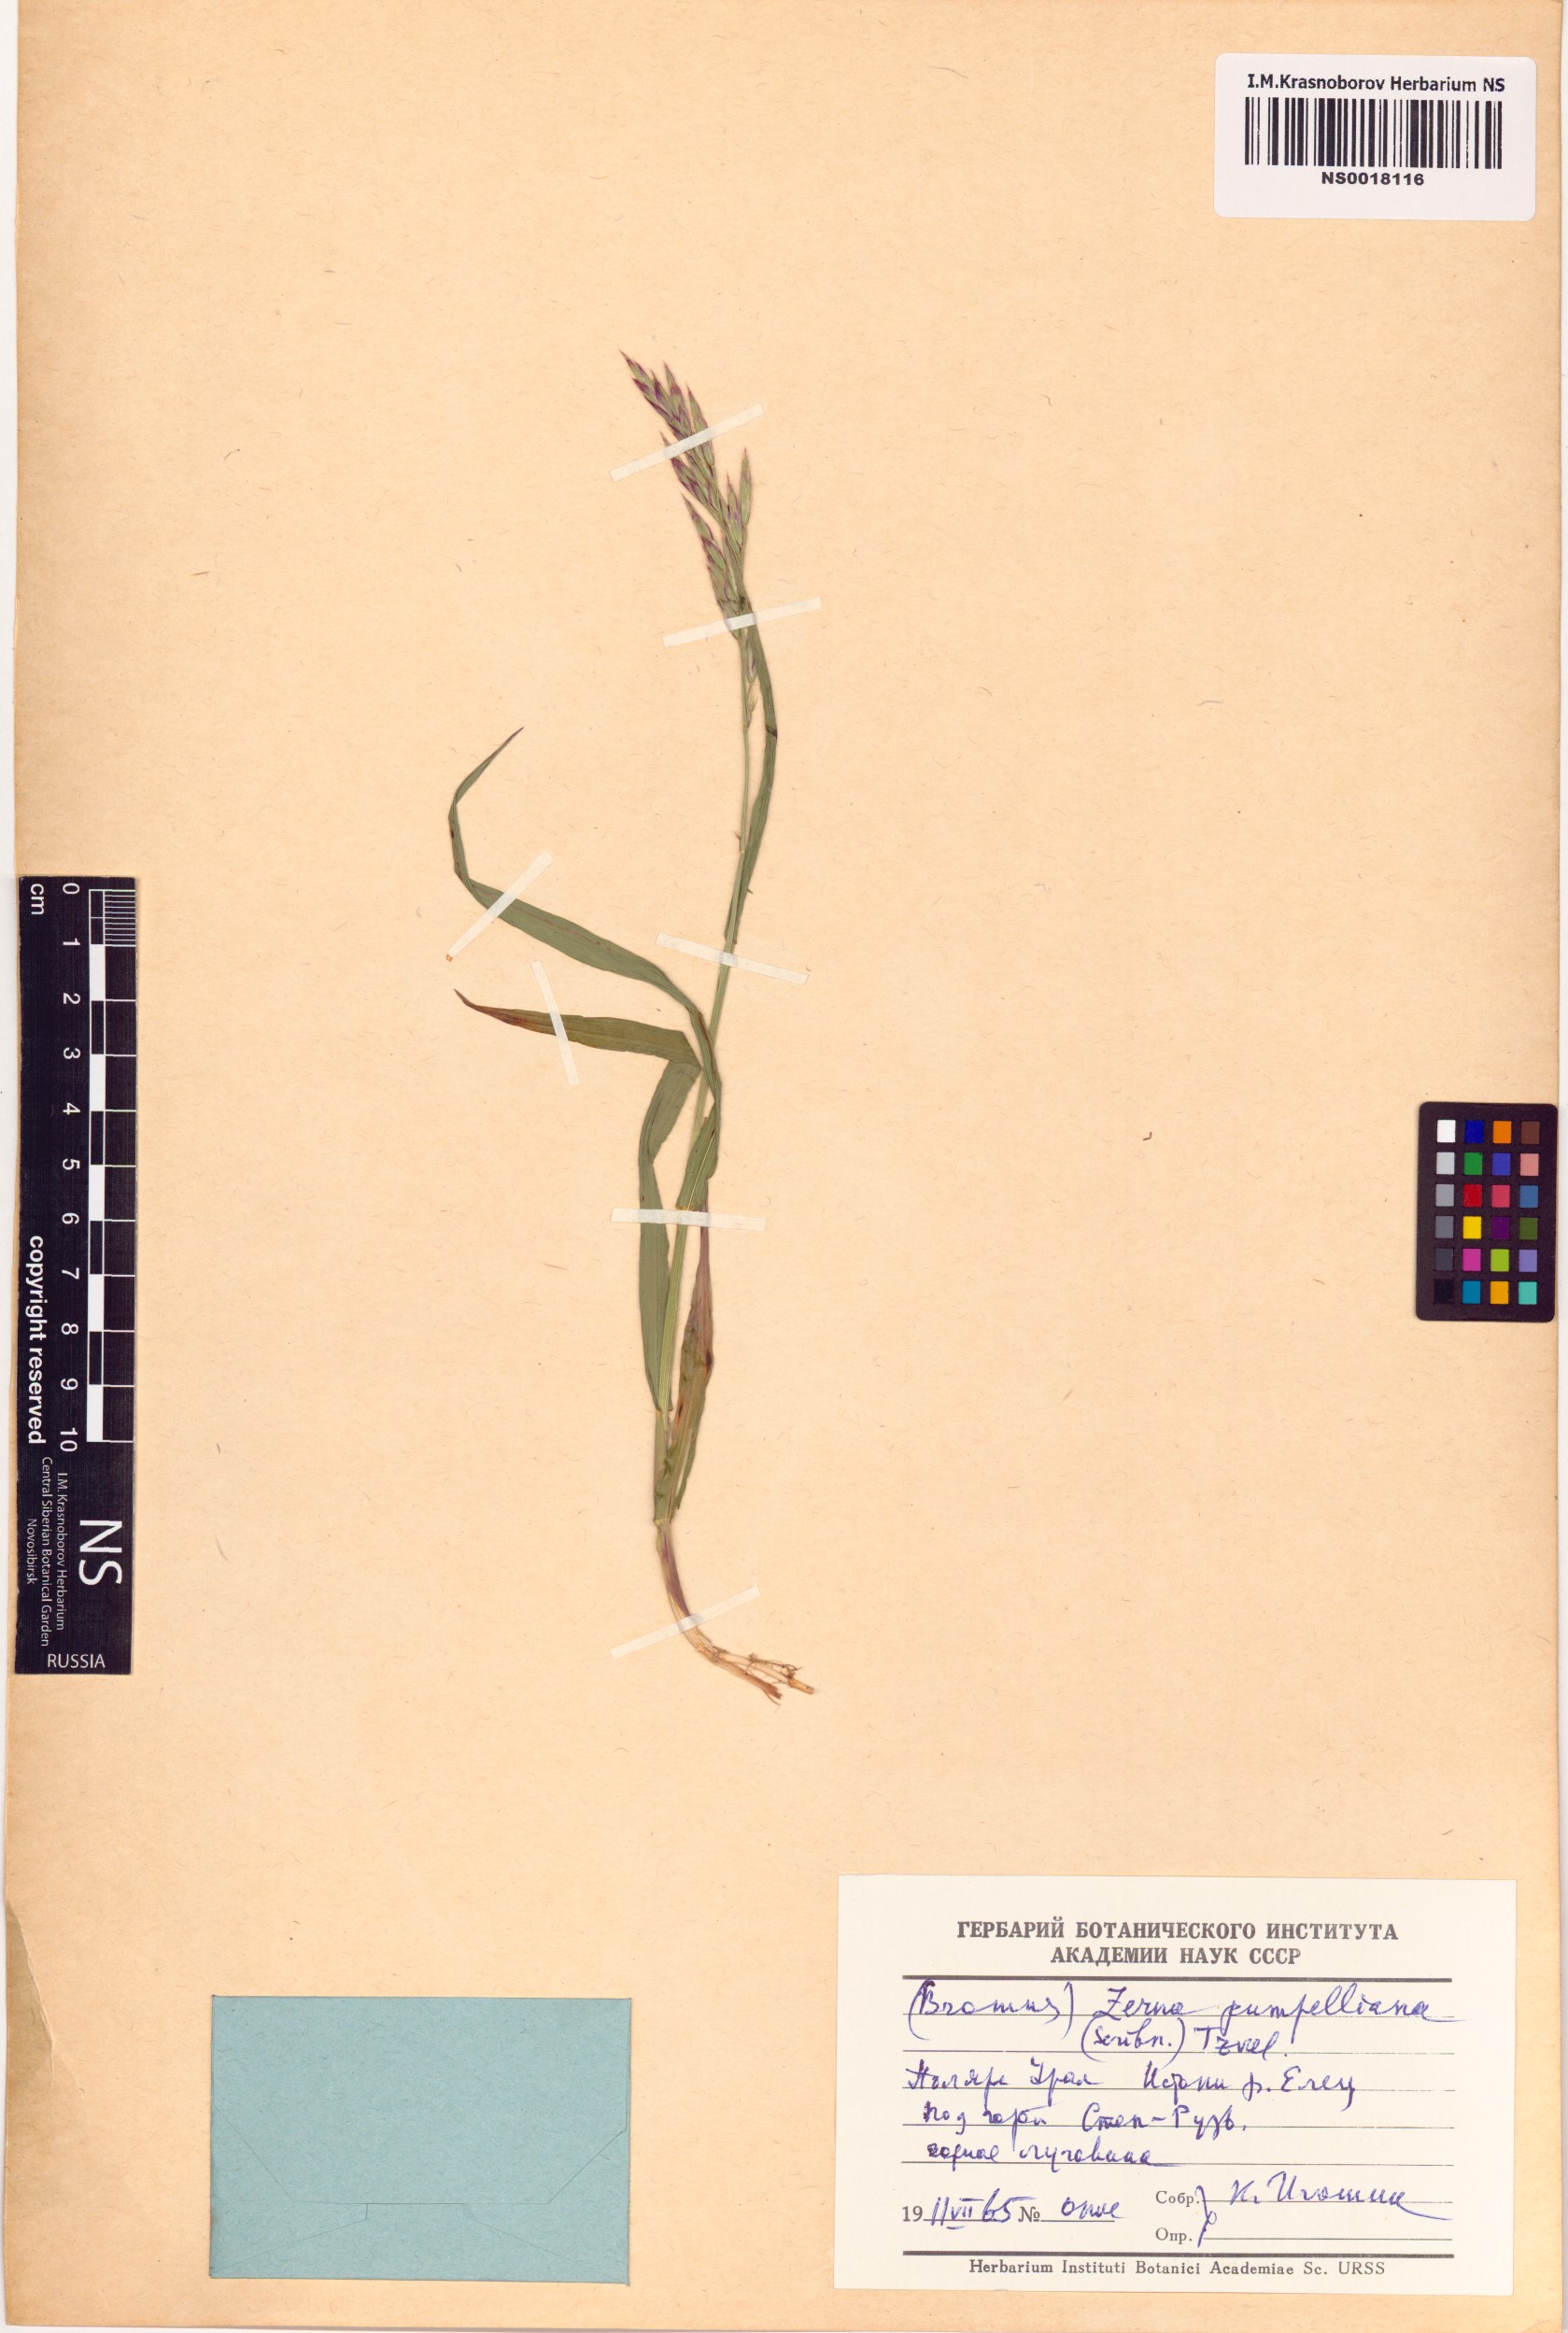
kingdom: Plantae
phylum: Tracheophyta
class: Liliopsida
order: Poales
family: Poaceae
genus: Bromus
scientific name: Bromus pumpellianus
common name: Pumpelly's brome
